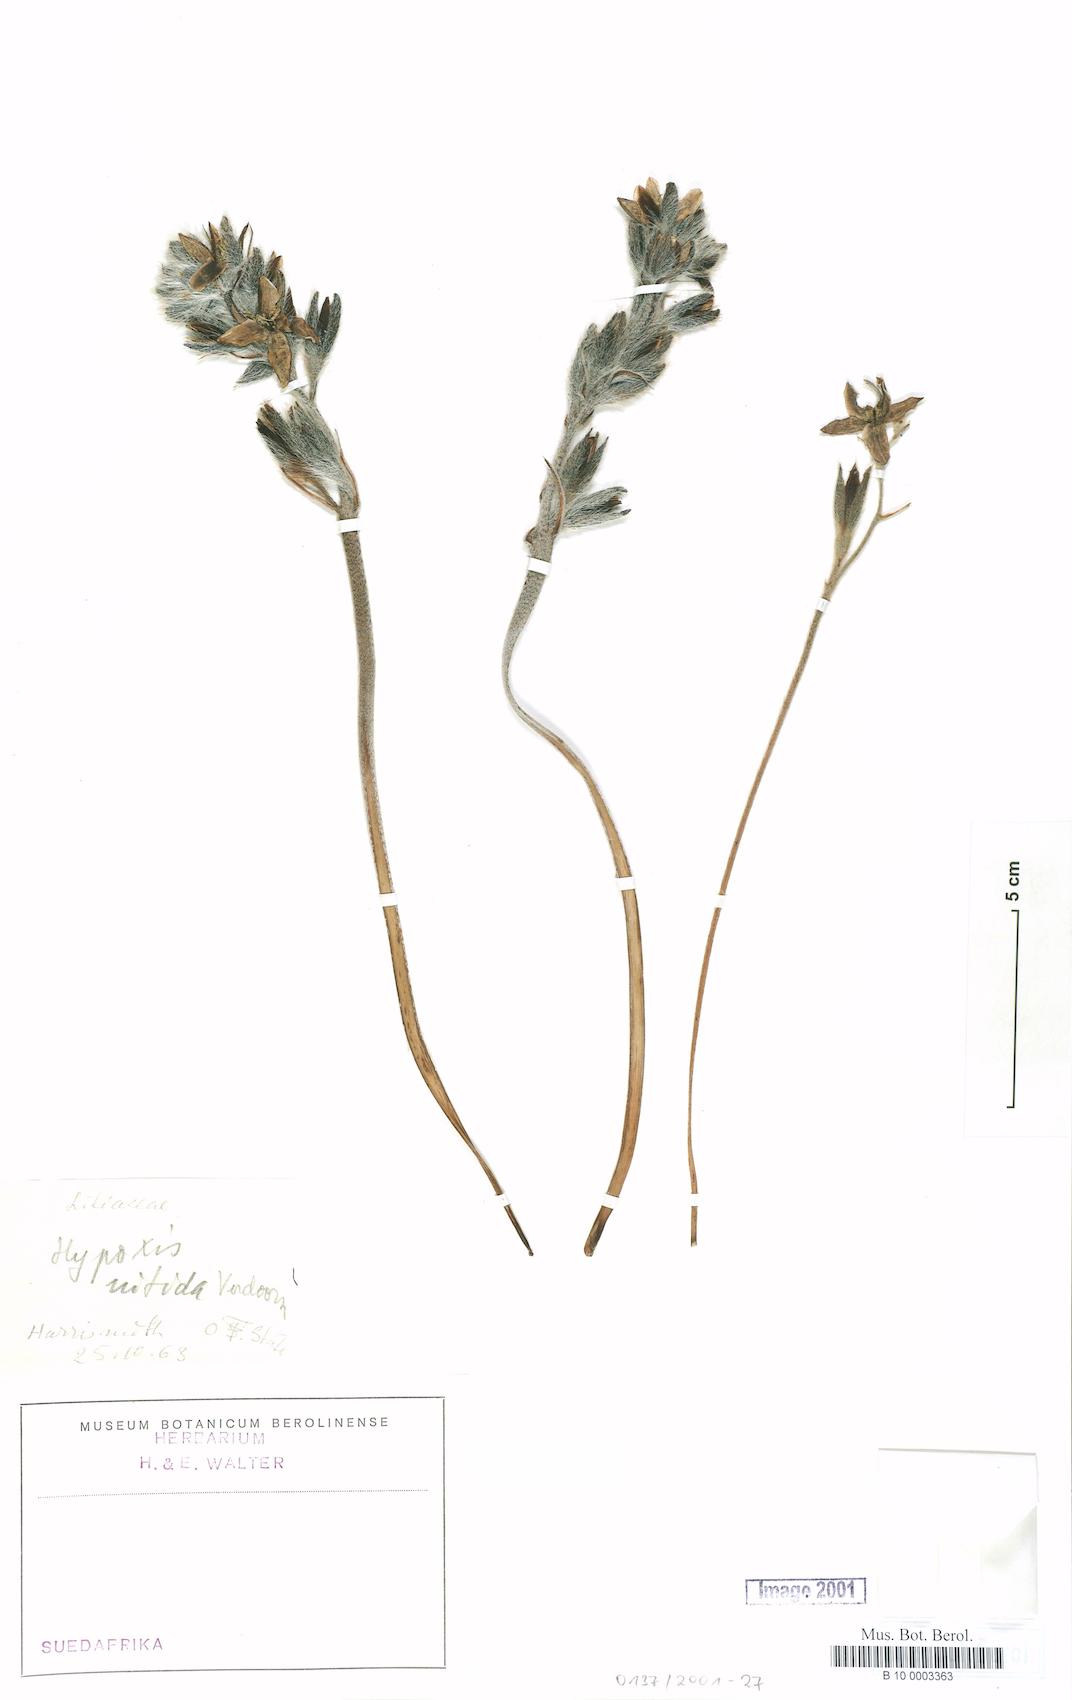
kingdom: Plantae
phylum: Tracheophyta
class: Liliopsida
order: Asparagales
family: Hypoxidaceae
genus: Hypoxis
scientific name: Hypoxis obtusa
